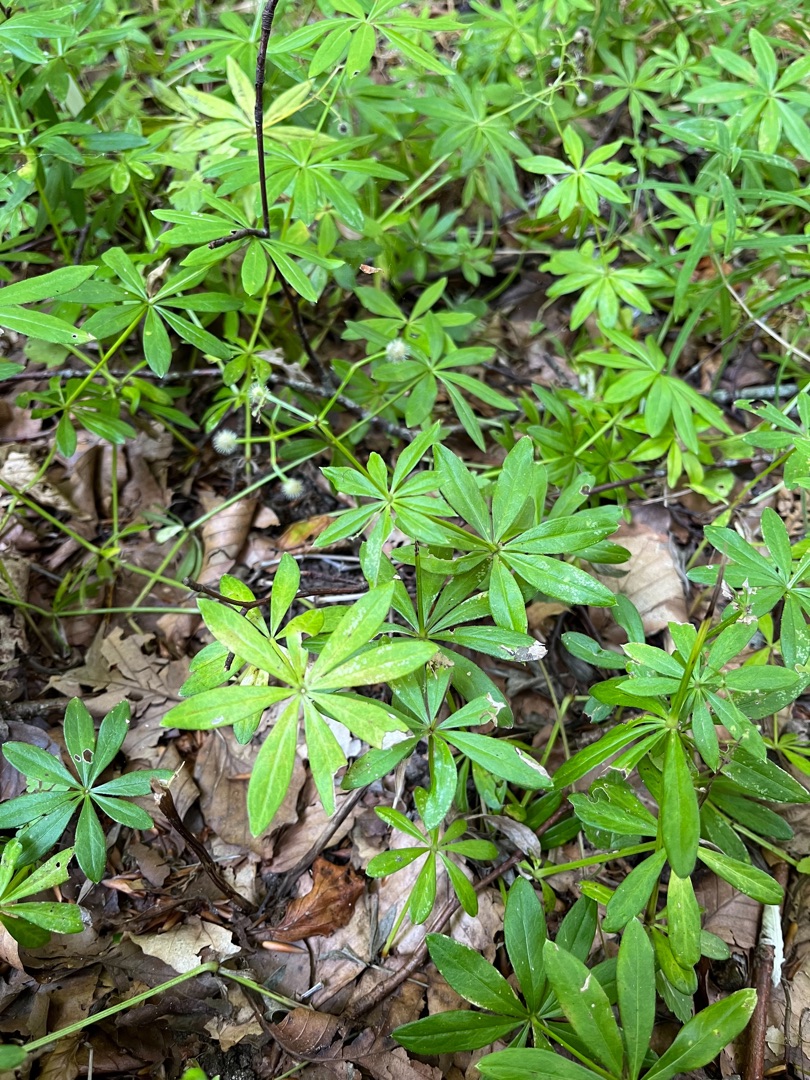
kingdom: Plantae
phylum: Tracheophyta
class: Magnoliopsida
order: Gentianales
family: Rubiaceae
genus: Galium
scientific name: Galium odoratum
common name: Skovmærke
